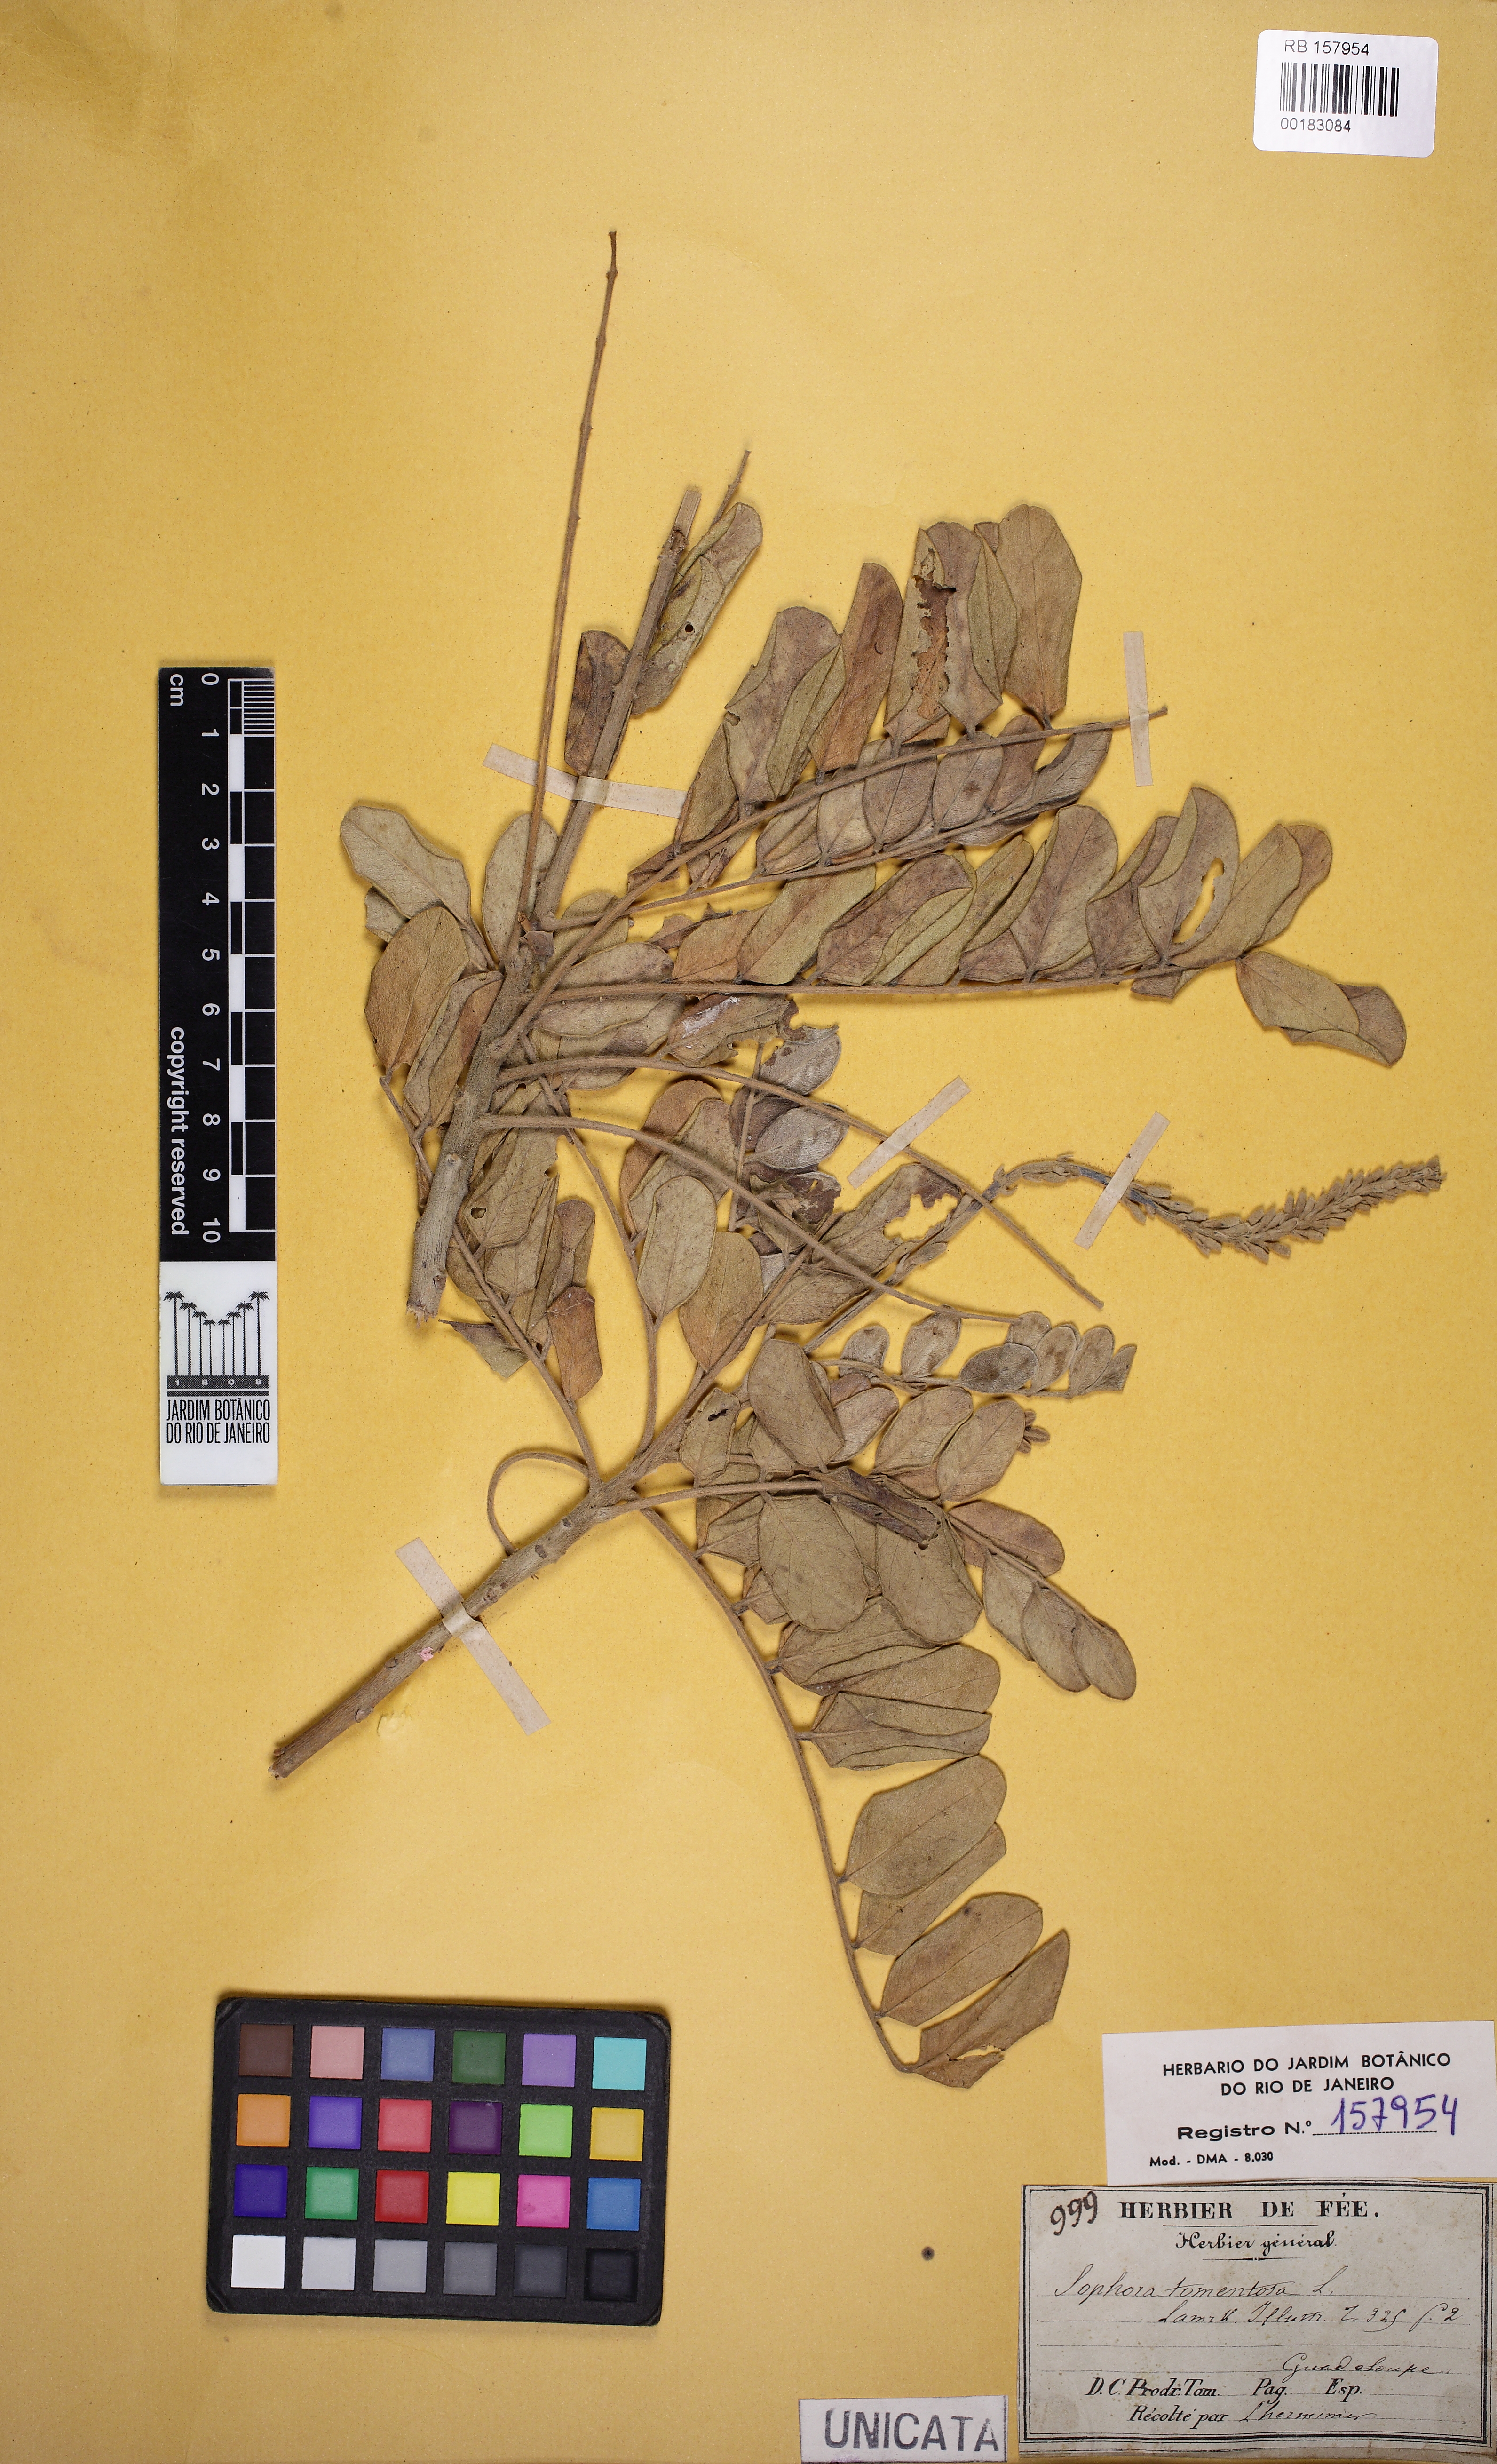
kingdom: Plantae
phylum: Tracheophyta
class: Magnoliopsida
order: Fabales
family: Fabaceae
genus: Sophora
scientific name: Sophora tomentosa
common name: Yellow necklacepod
